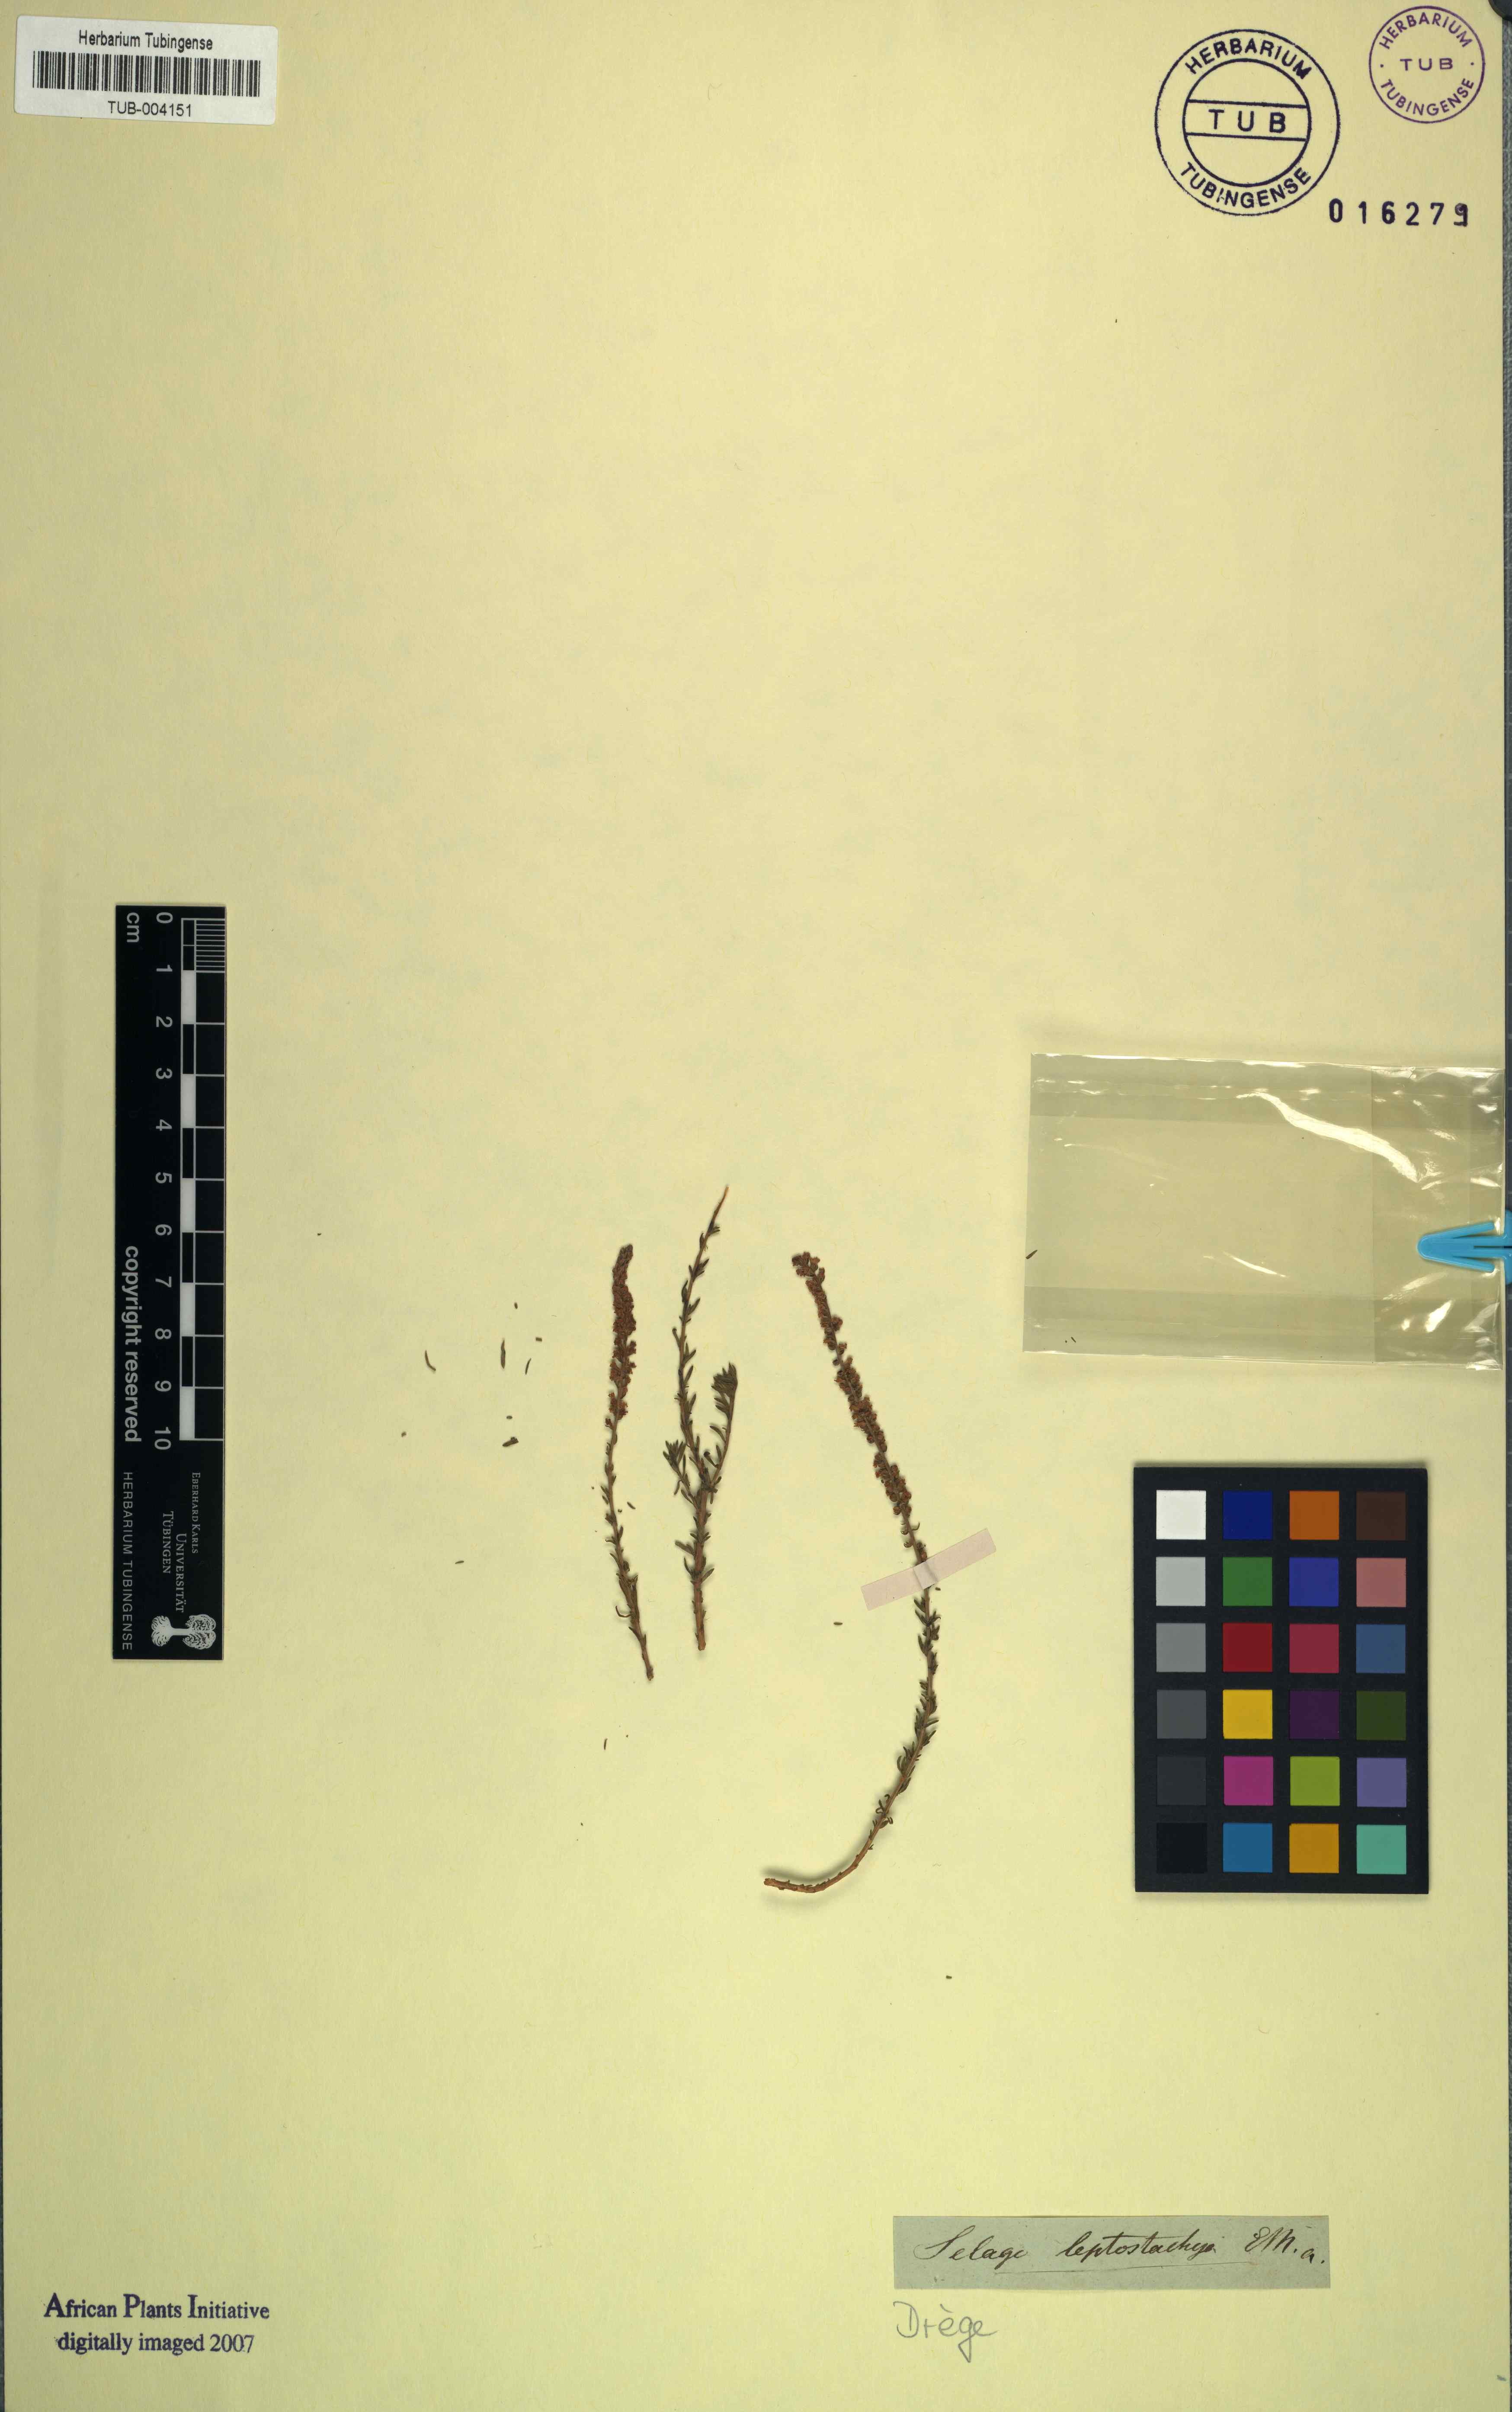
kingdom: Plantae
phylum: Tracheophyta
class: Magnoliopsida
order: Lamiales
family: Scrophulariaceae
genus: Selago
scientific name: Selago geniculata
